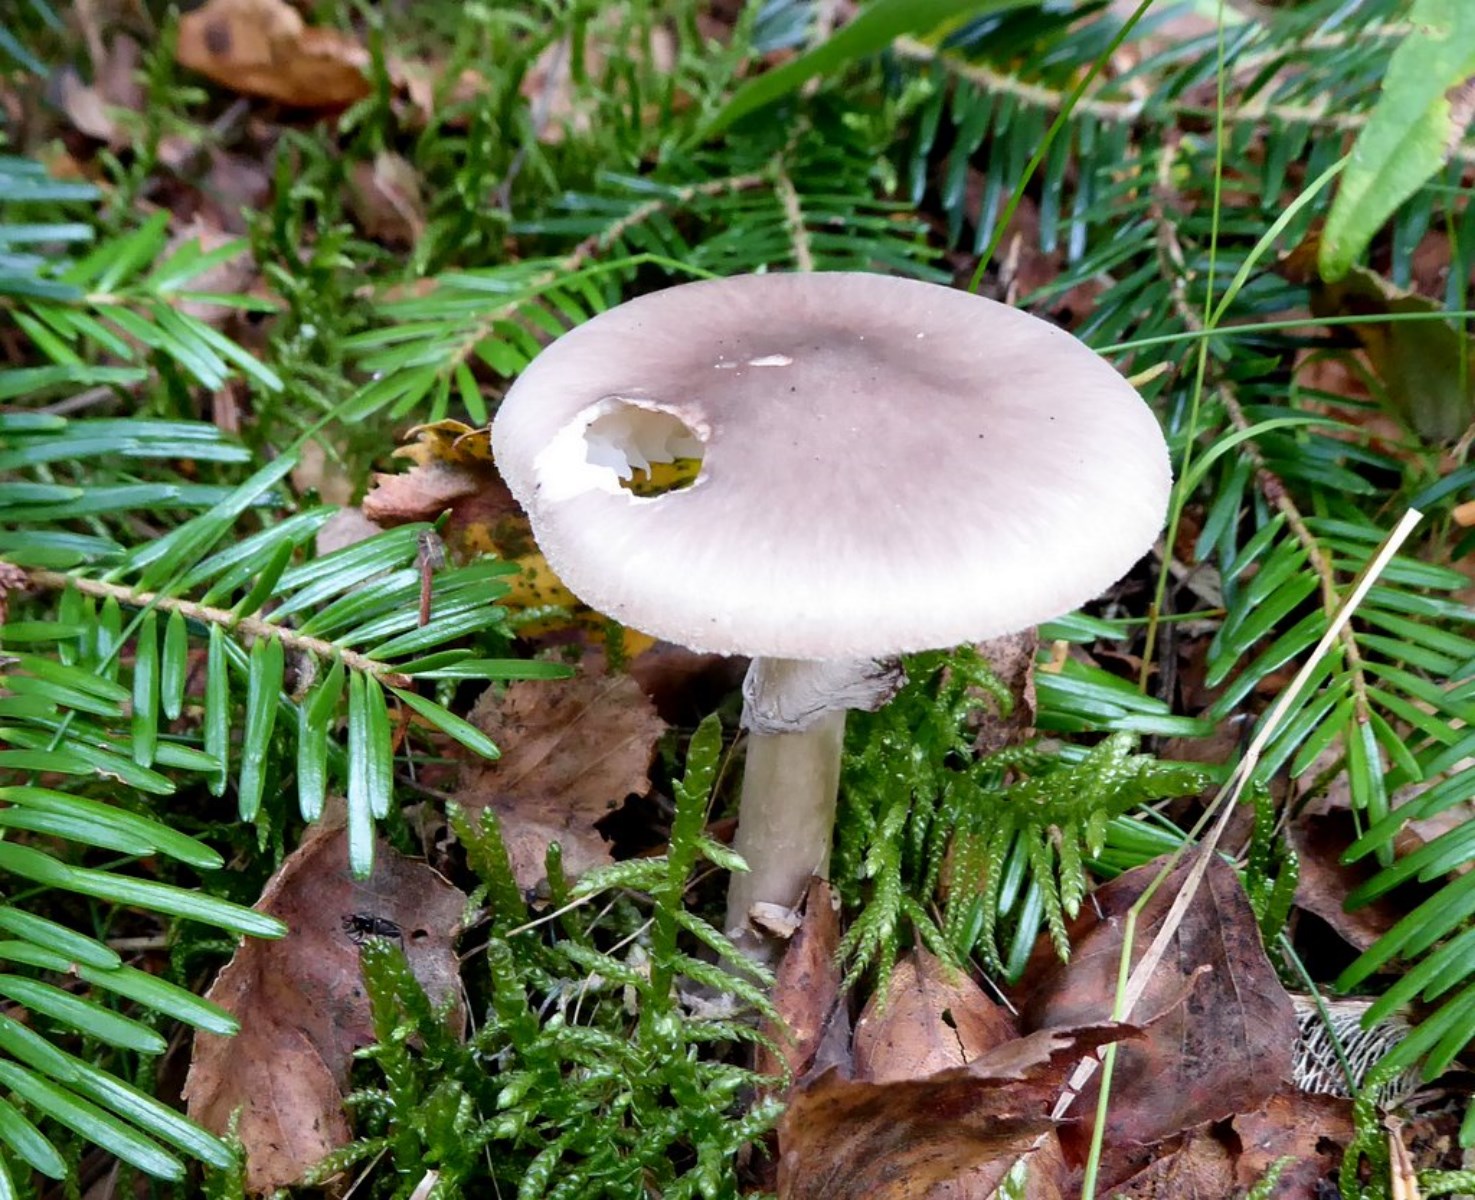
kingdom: Fungi
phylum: Basidiomycota
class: Agaricomycetes
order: Agaricales
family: Amanitaceae
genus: Amanita
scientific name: Amanita porphyria
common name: porfyr-fluesvamp
